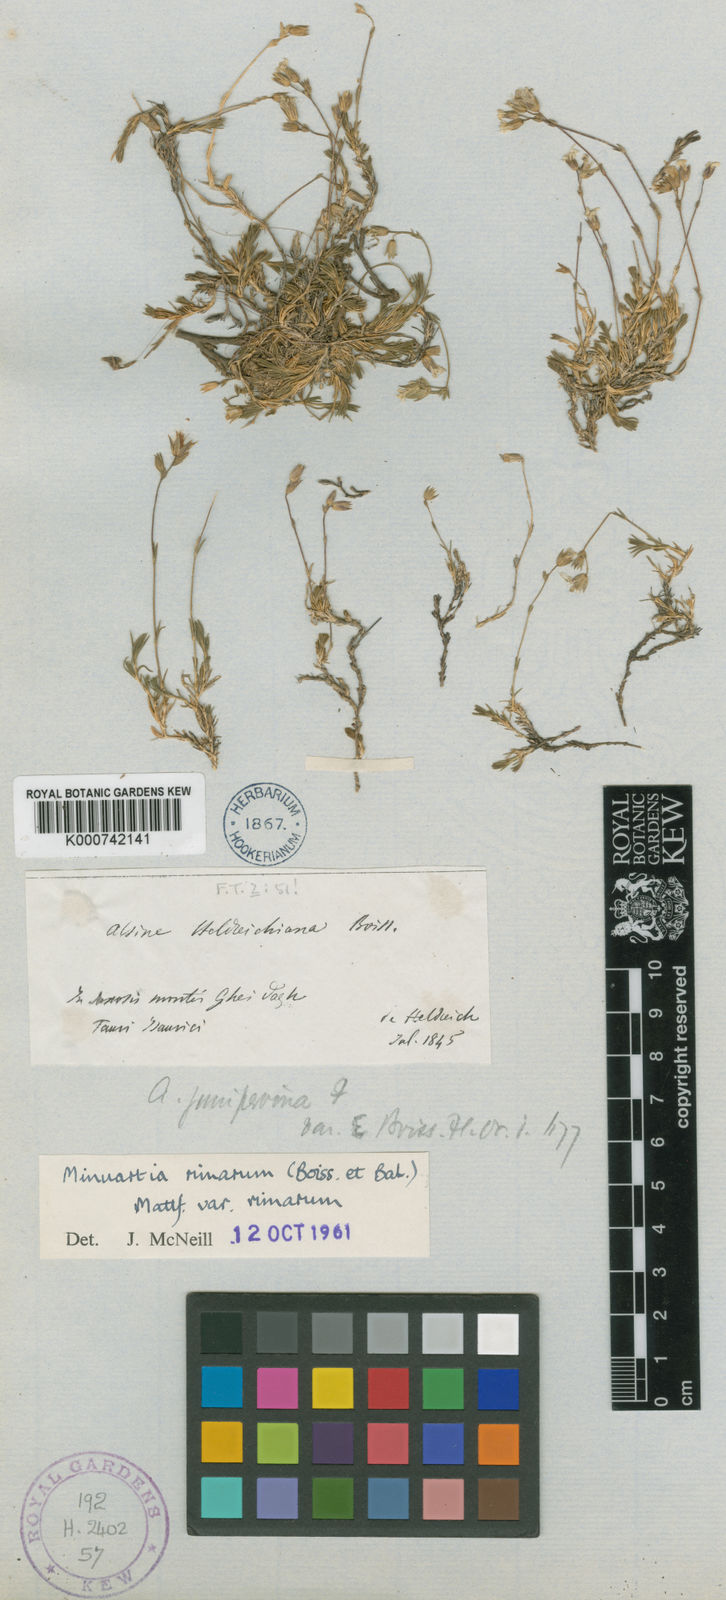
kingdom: Plantae
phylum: Tracheophyta
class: Magnoliopsida
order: Caryophyllales
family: Caryophyllaceae
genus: Sabulina
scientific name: Sabulina rimarum
